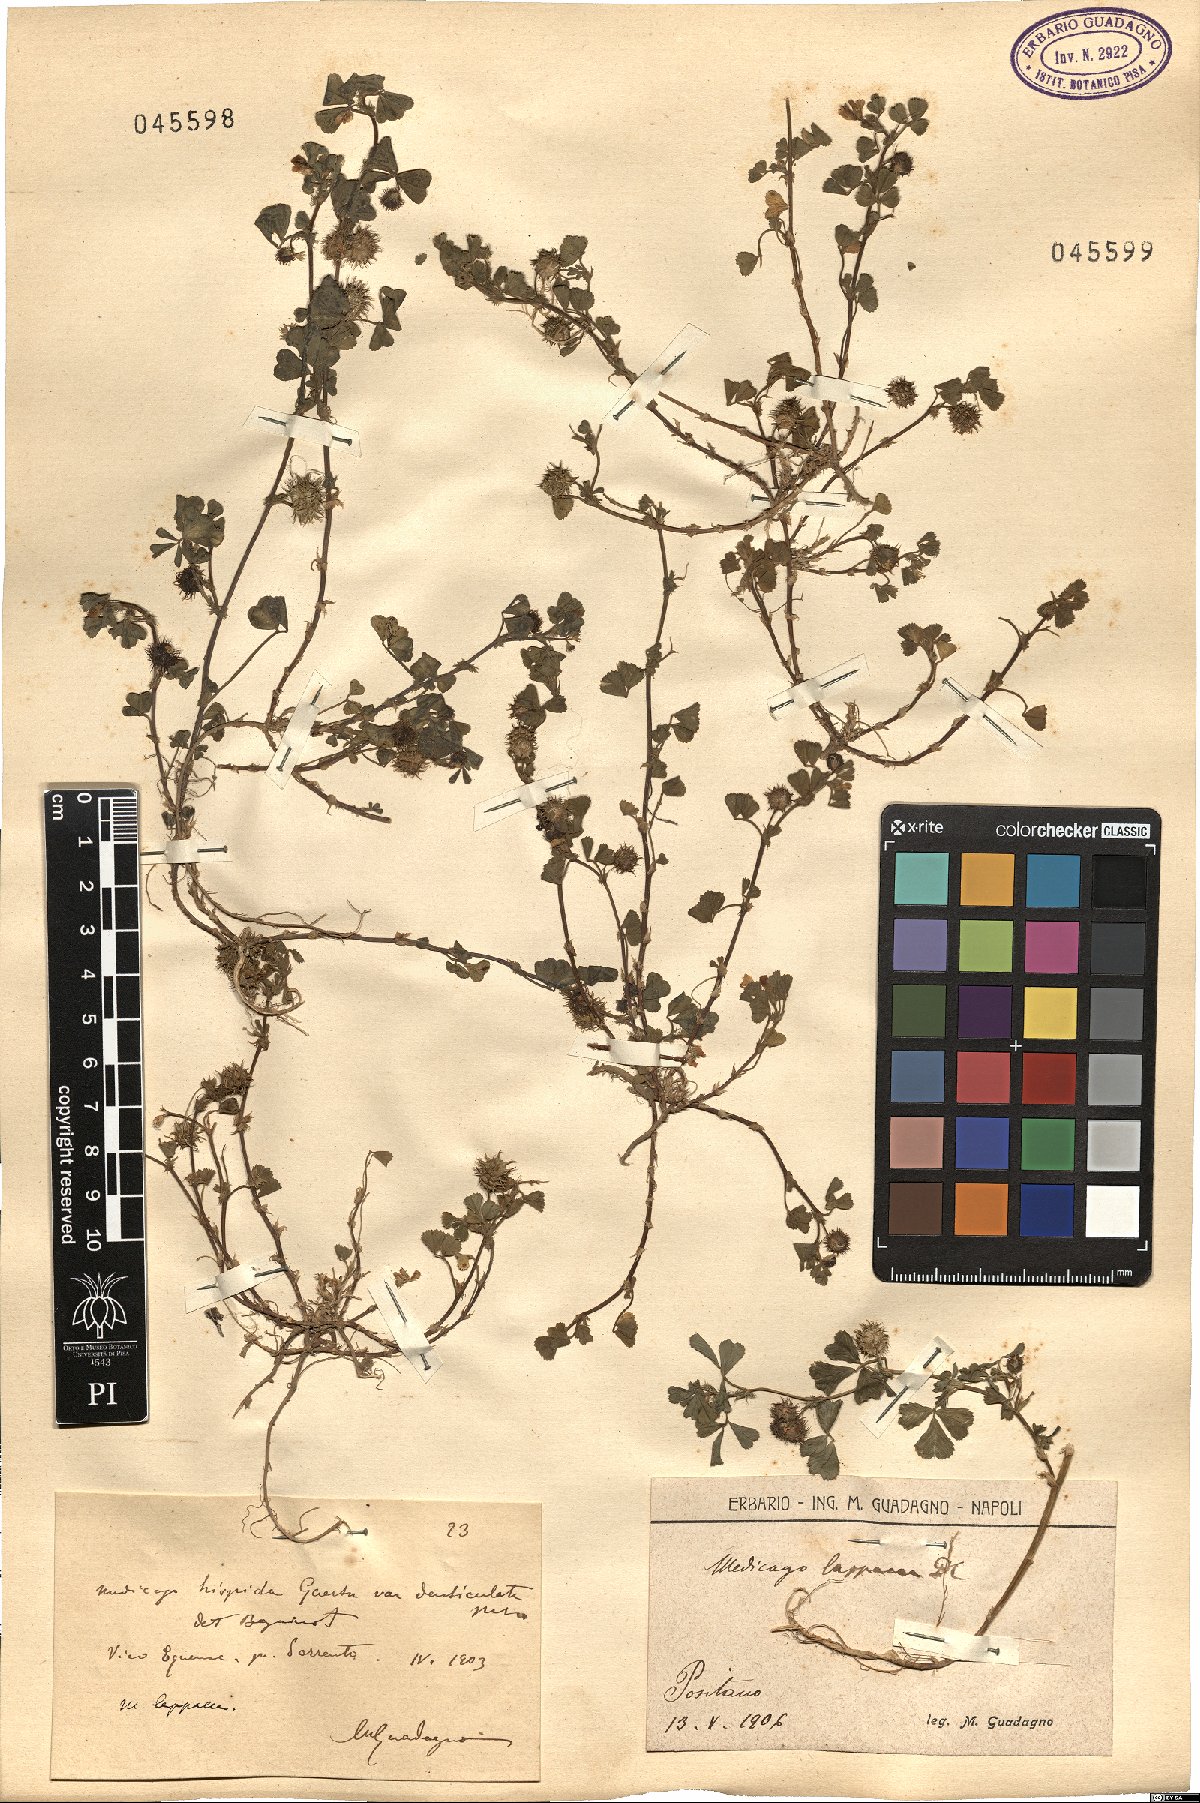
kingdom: Plantae
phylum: Tracheophyta
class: Magnoliopsida
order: Fabales
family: Fabaceae
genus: Medicago
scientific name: Medicago polymorpha
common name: Burclover
